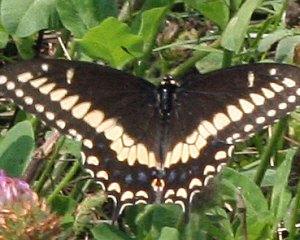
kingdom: Animalia
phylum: Arthropoda
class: Insecta
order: Lepidoptera
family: Papilionidae
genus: Papilio
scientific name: Papilio polyxenes
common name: Black Swallowtail
